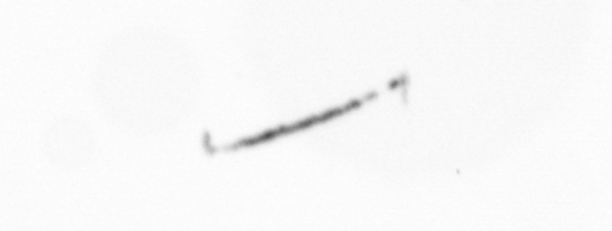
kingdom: Chromista
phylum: Ochrophyta
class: Bacillariophyceae
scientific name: Bacillariophyceae
